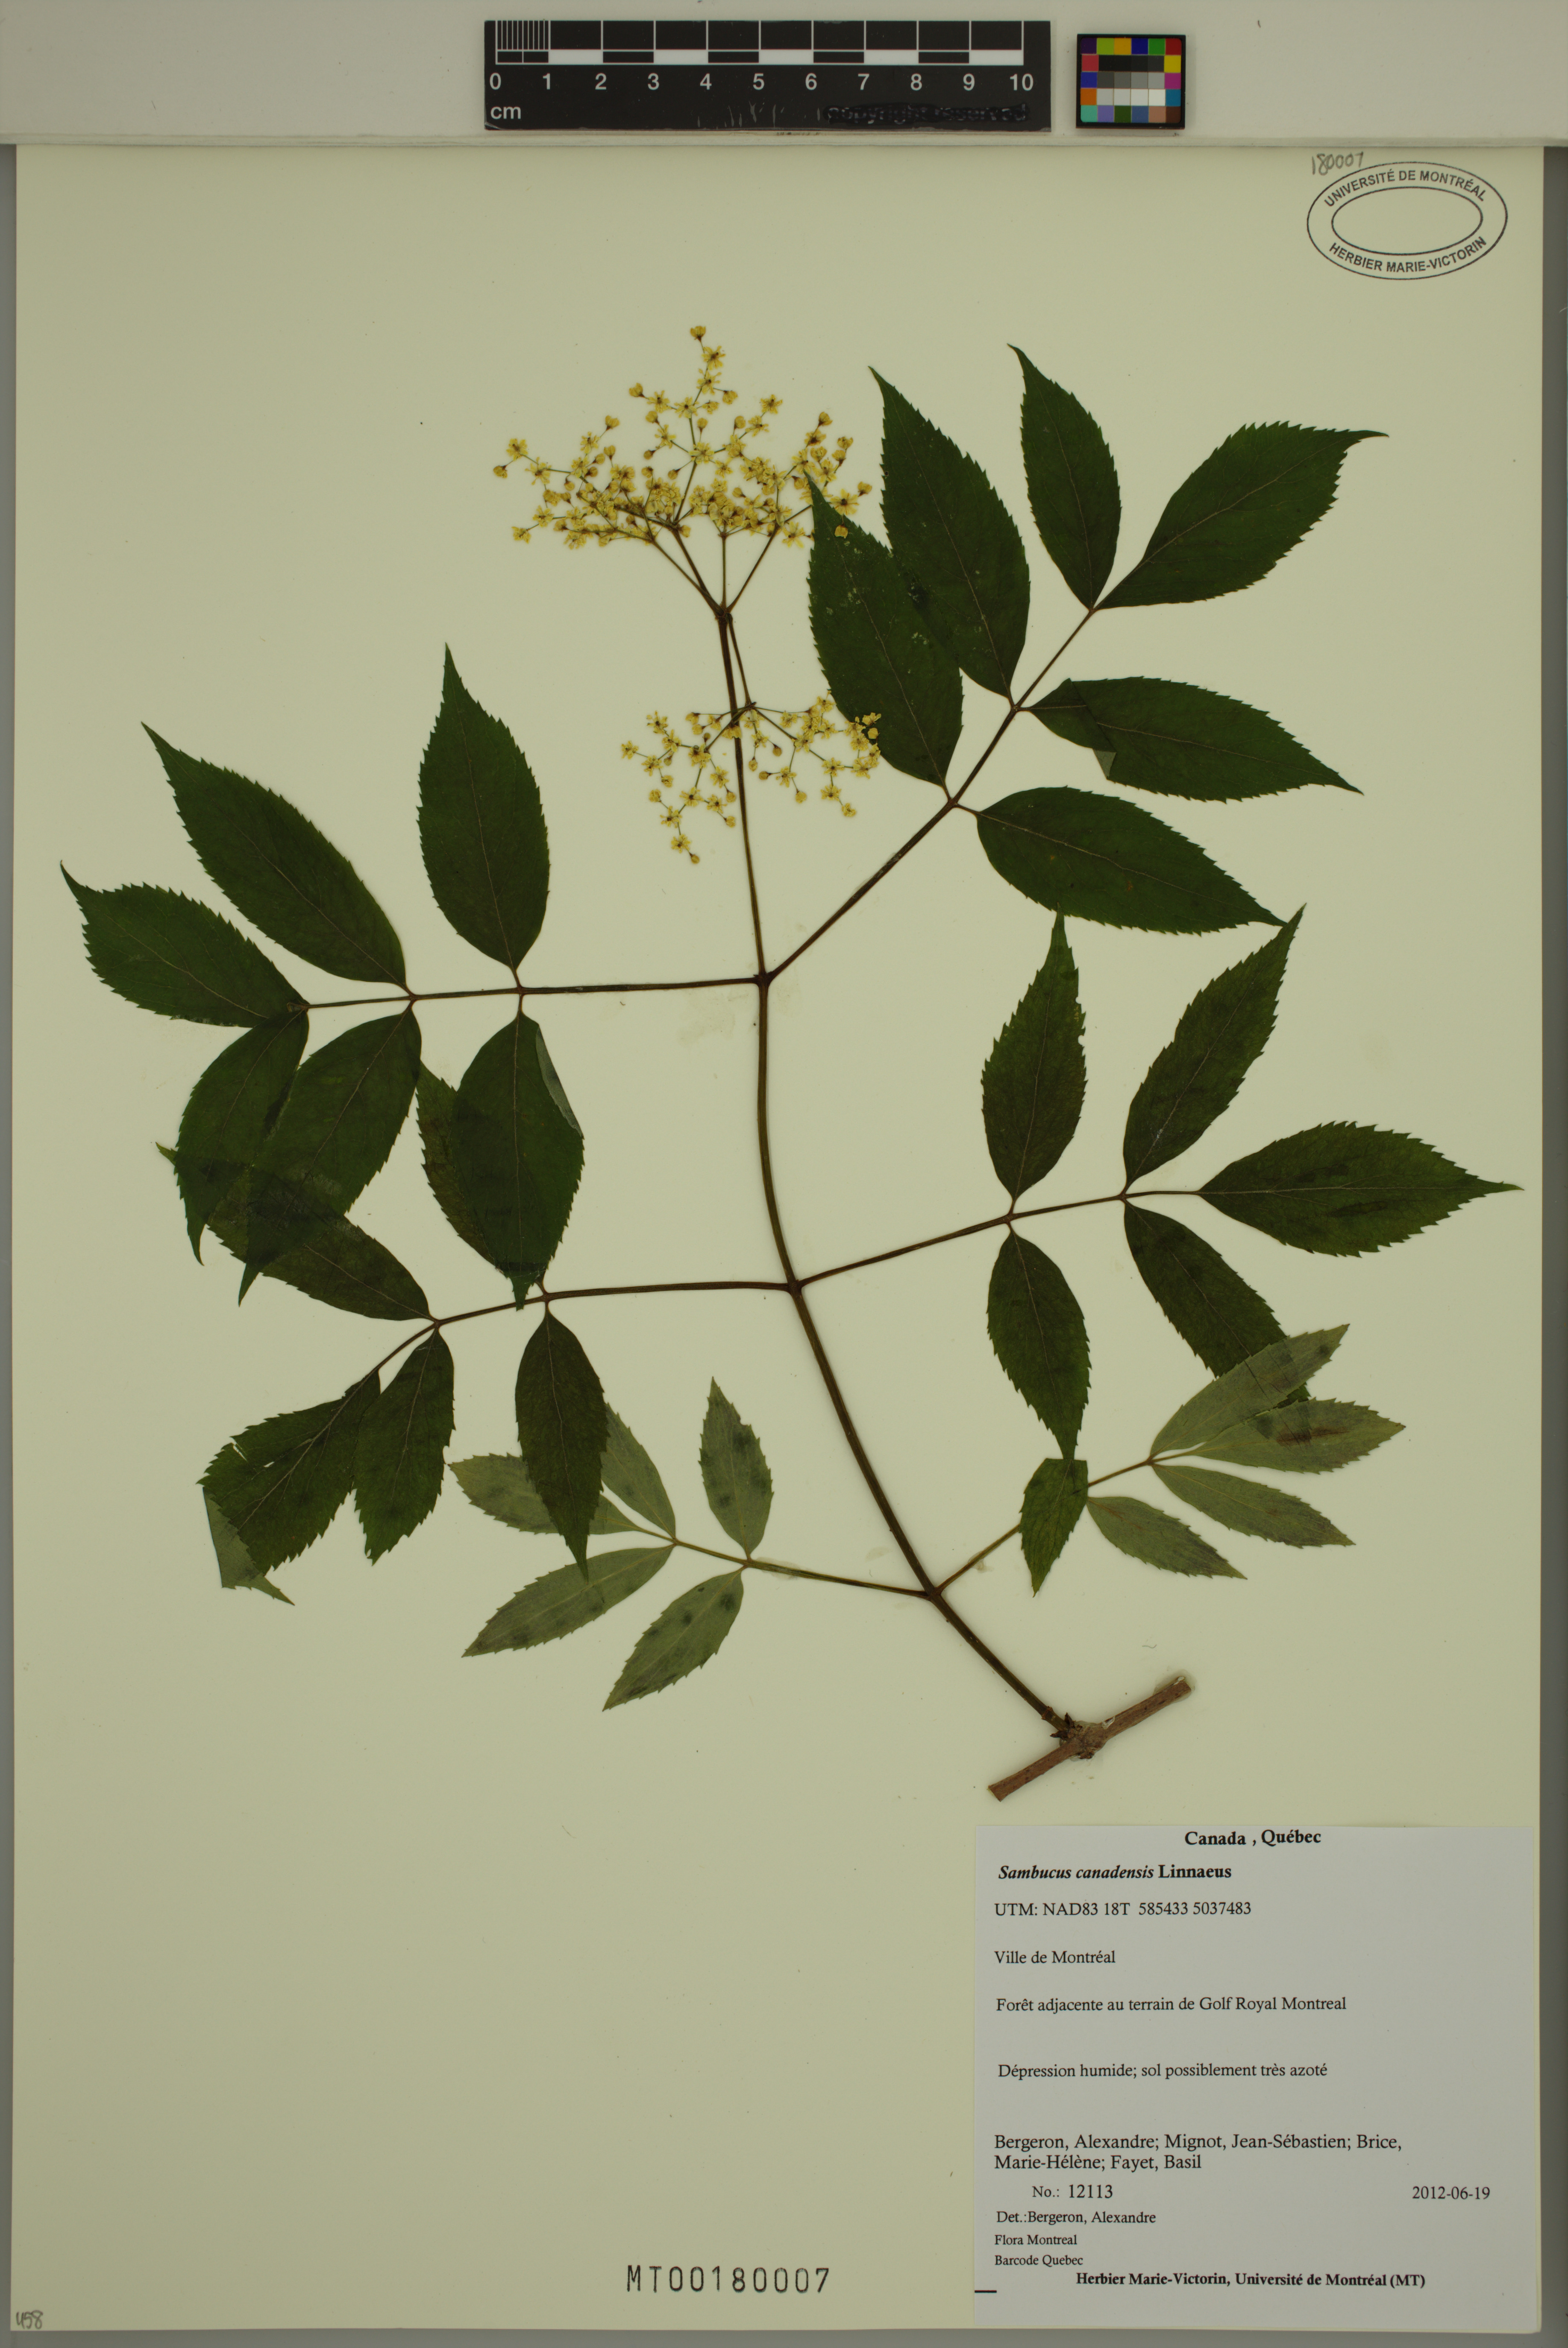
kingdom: Plantae
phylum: Tracheophyta
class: Magnoliopsida
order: Dipsacales
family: Viburnaceae
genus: Sambucus
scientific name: Sambucus canadensis
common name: American elder
